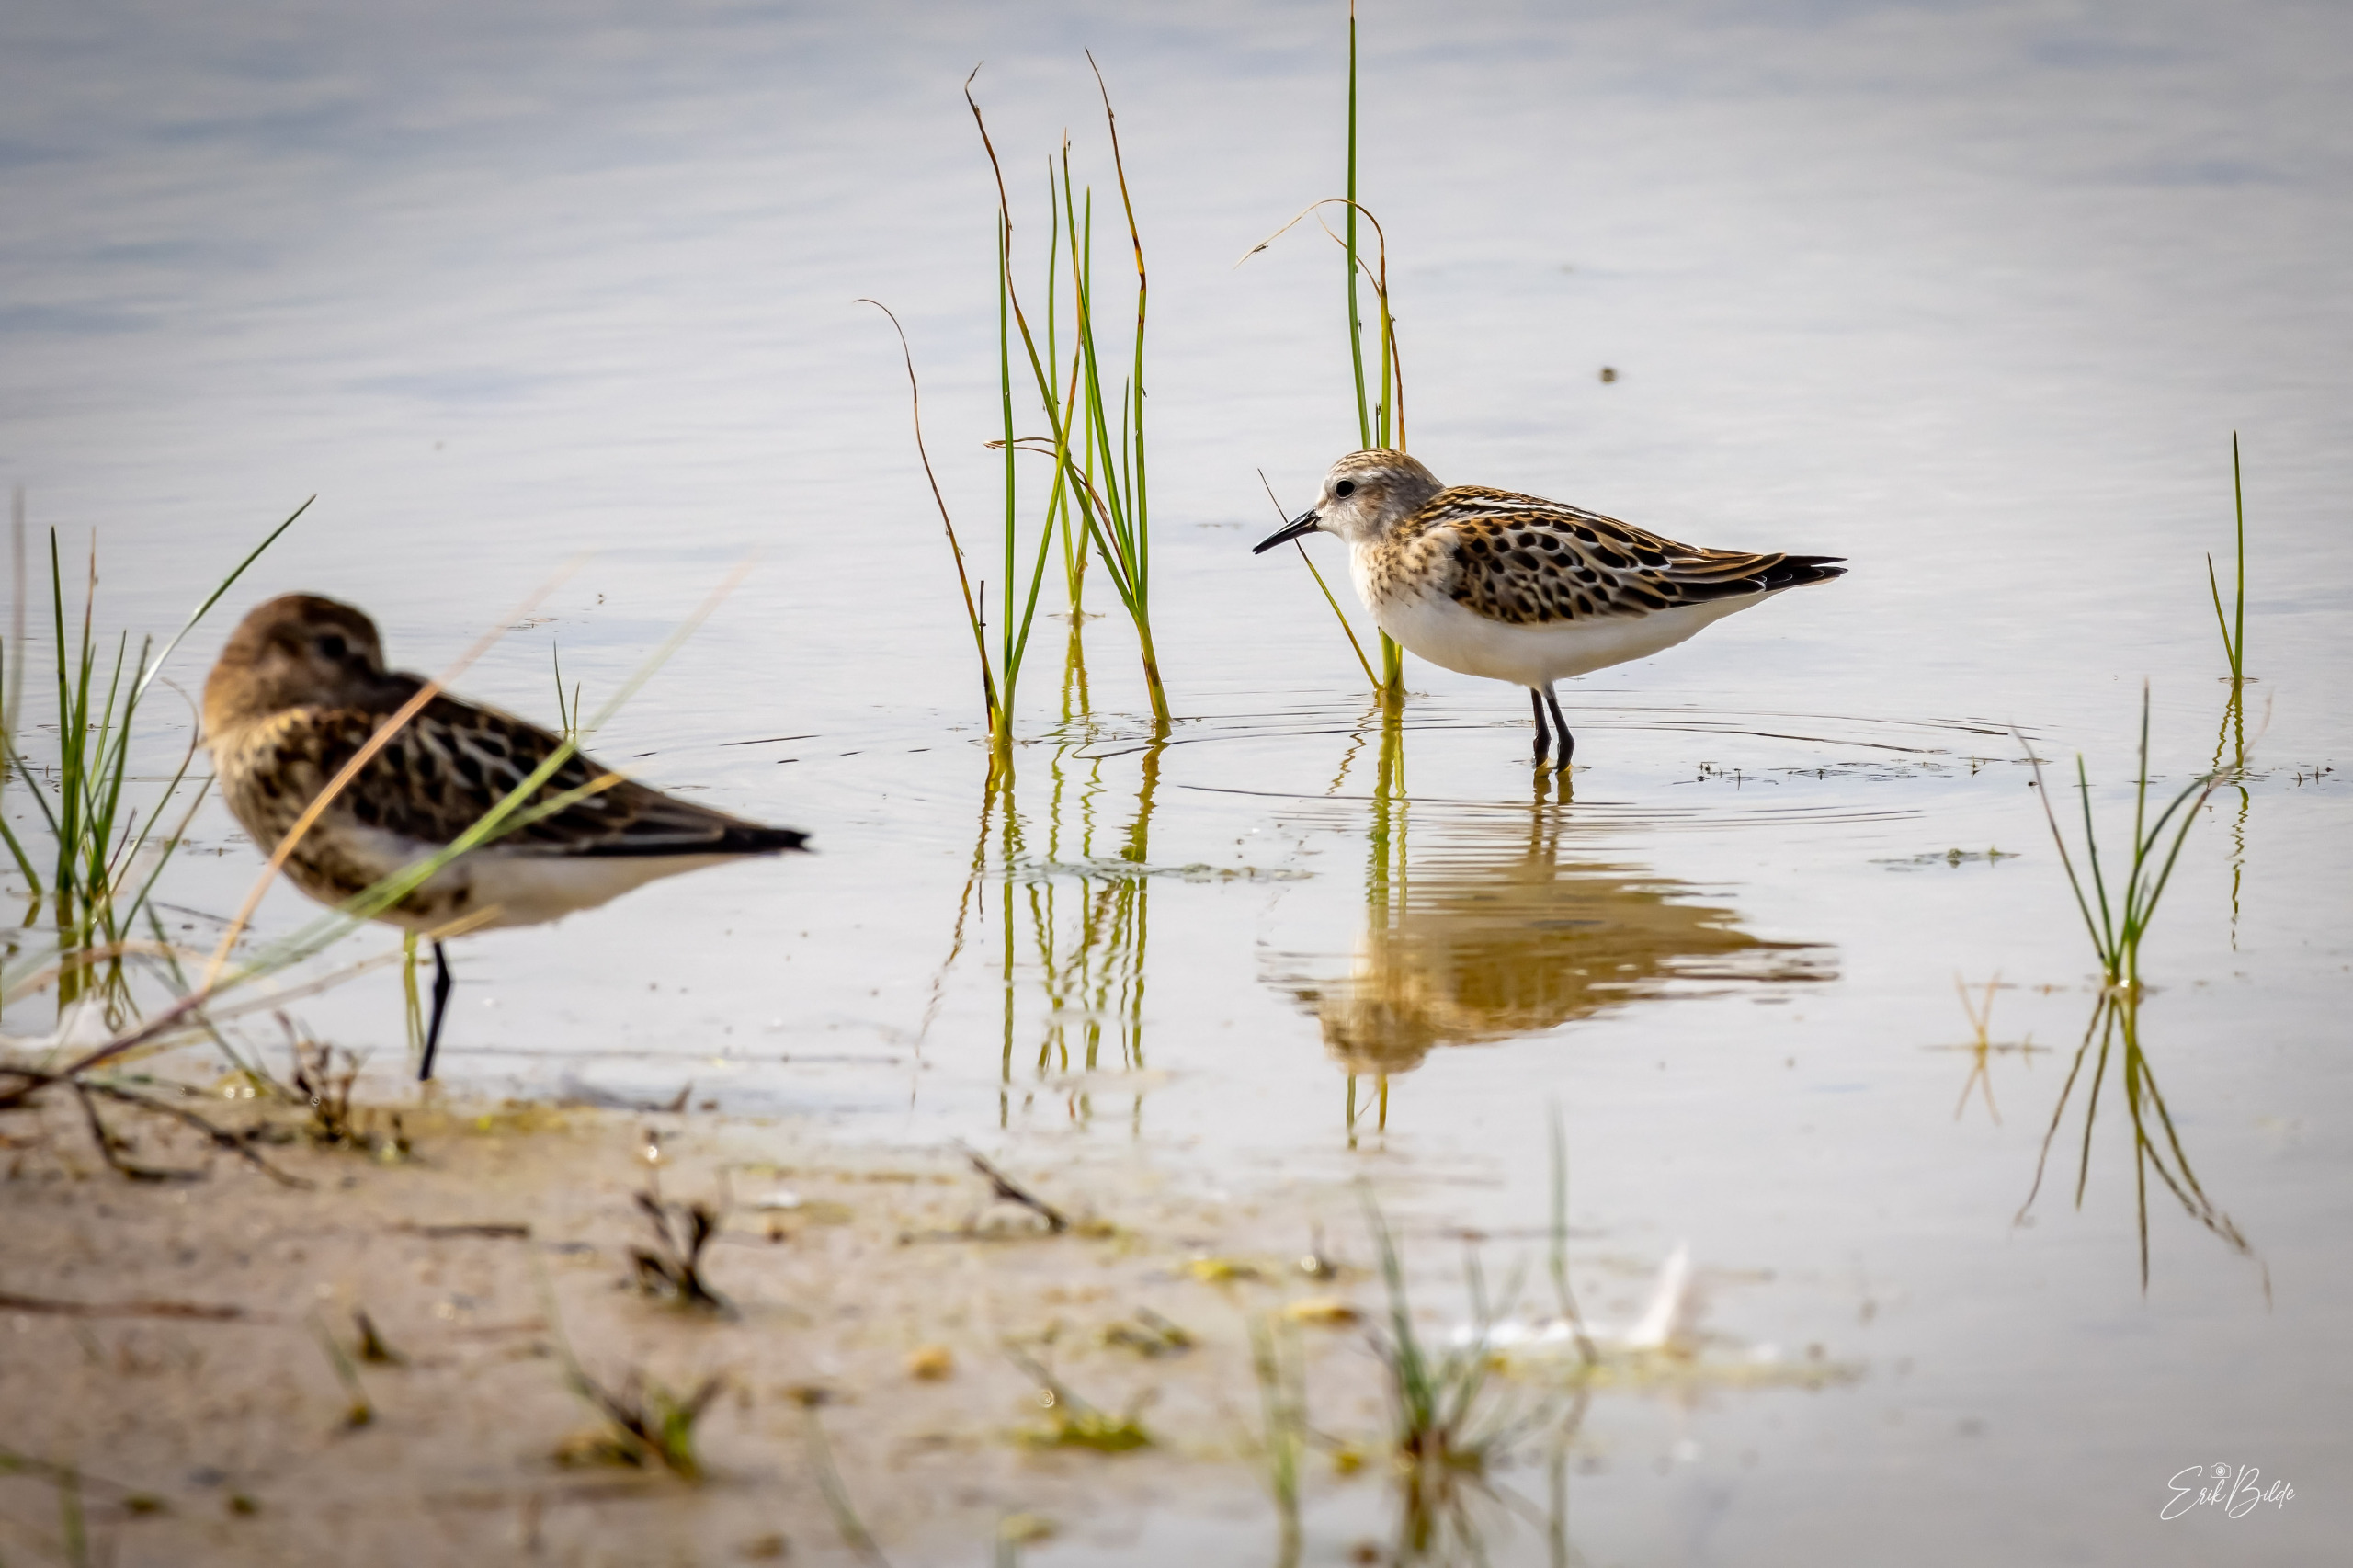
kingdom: Animalia
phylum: Chordata
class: Aves
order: Charadriiformes
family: Scolopacidae
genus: Calidris
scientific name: Calidris minuta
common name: Dværgryle
